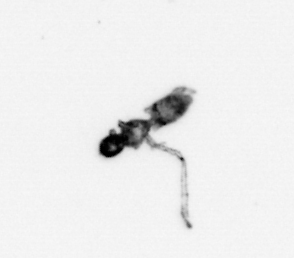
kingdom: Animalia
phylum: Arthropoda
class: Copepoda
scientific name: Copepoda
